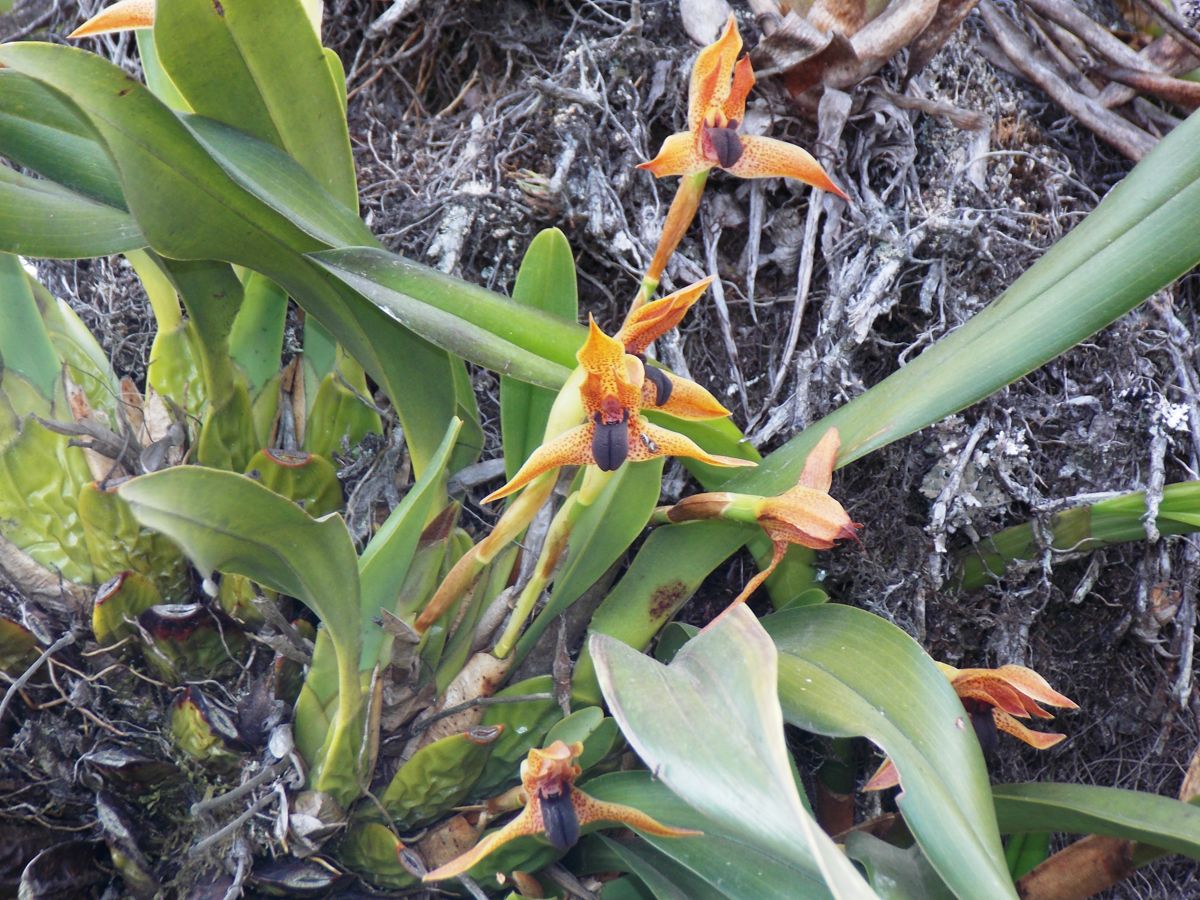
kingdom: Plantae
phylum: Tracheophyta
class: Liliopsida
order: Asparagales
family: Orchidaceae
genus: Maxillaria
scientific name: Maxillaria cucullata
